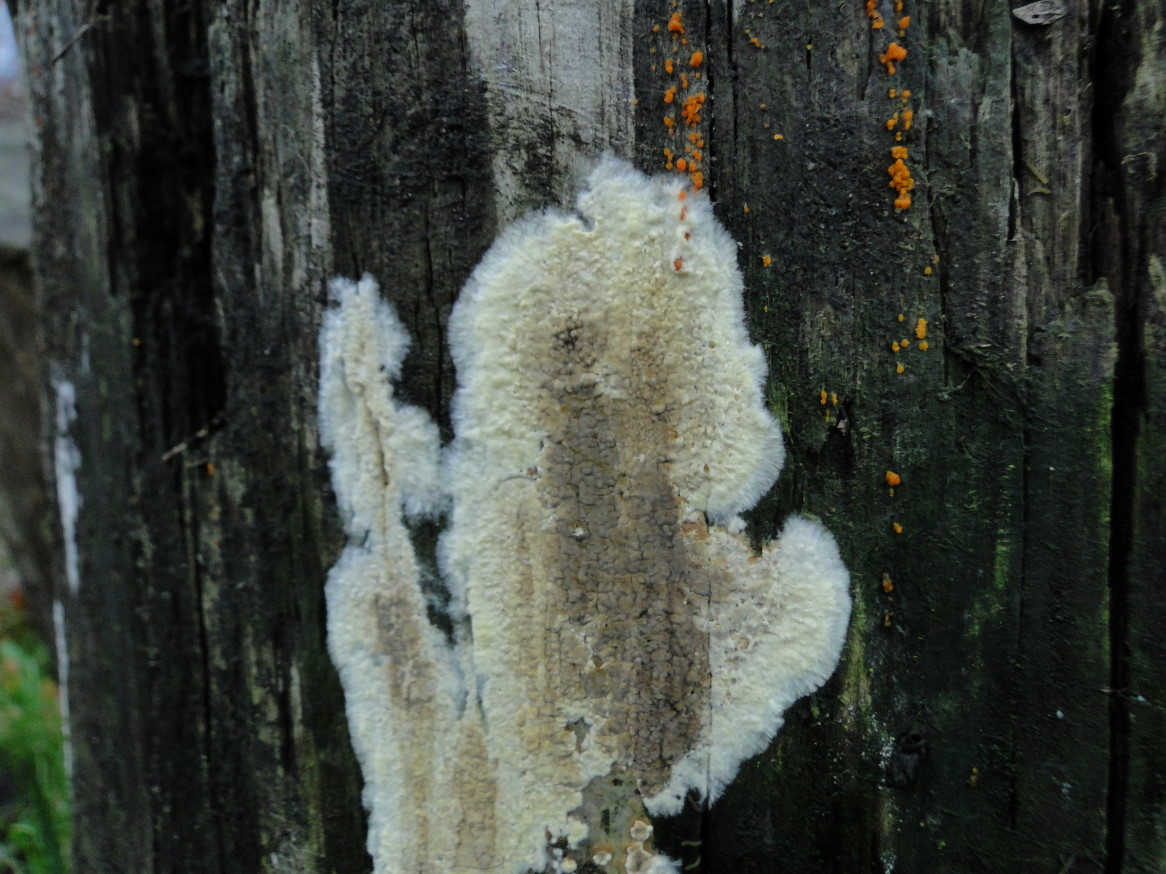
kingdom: Fungi
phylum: Basidiomycota
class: Agaricomycetes
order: Boletales
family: Coniophoraceae
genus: Coniophora
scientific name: Coniophora puteana
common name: gul tømmersvamp
